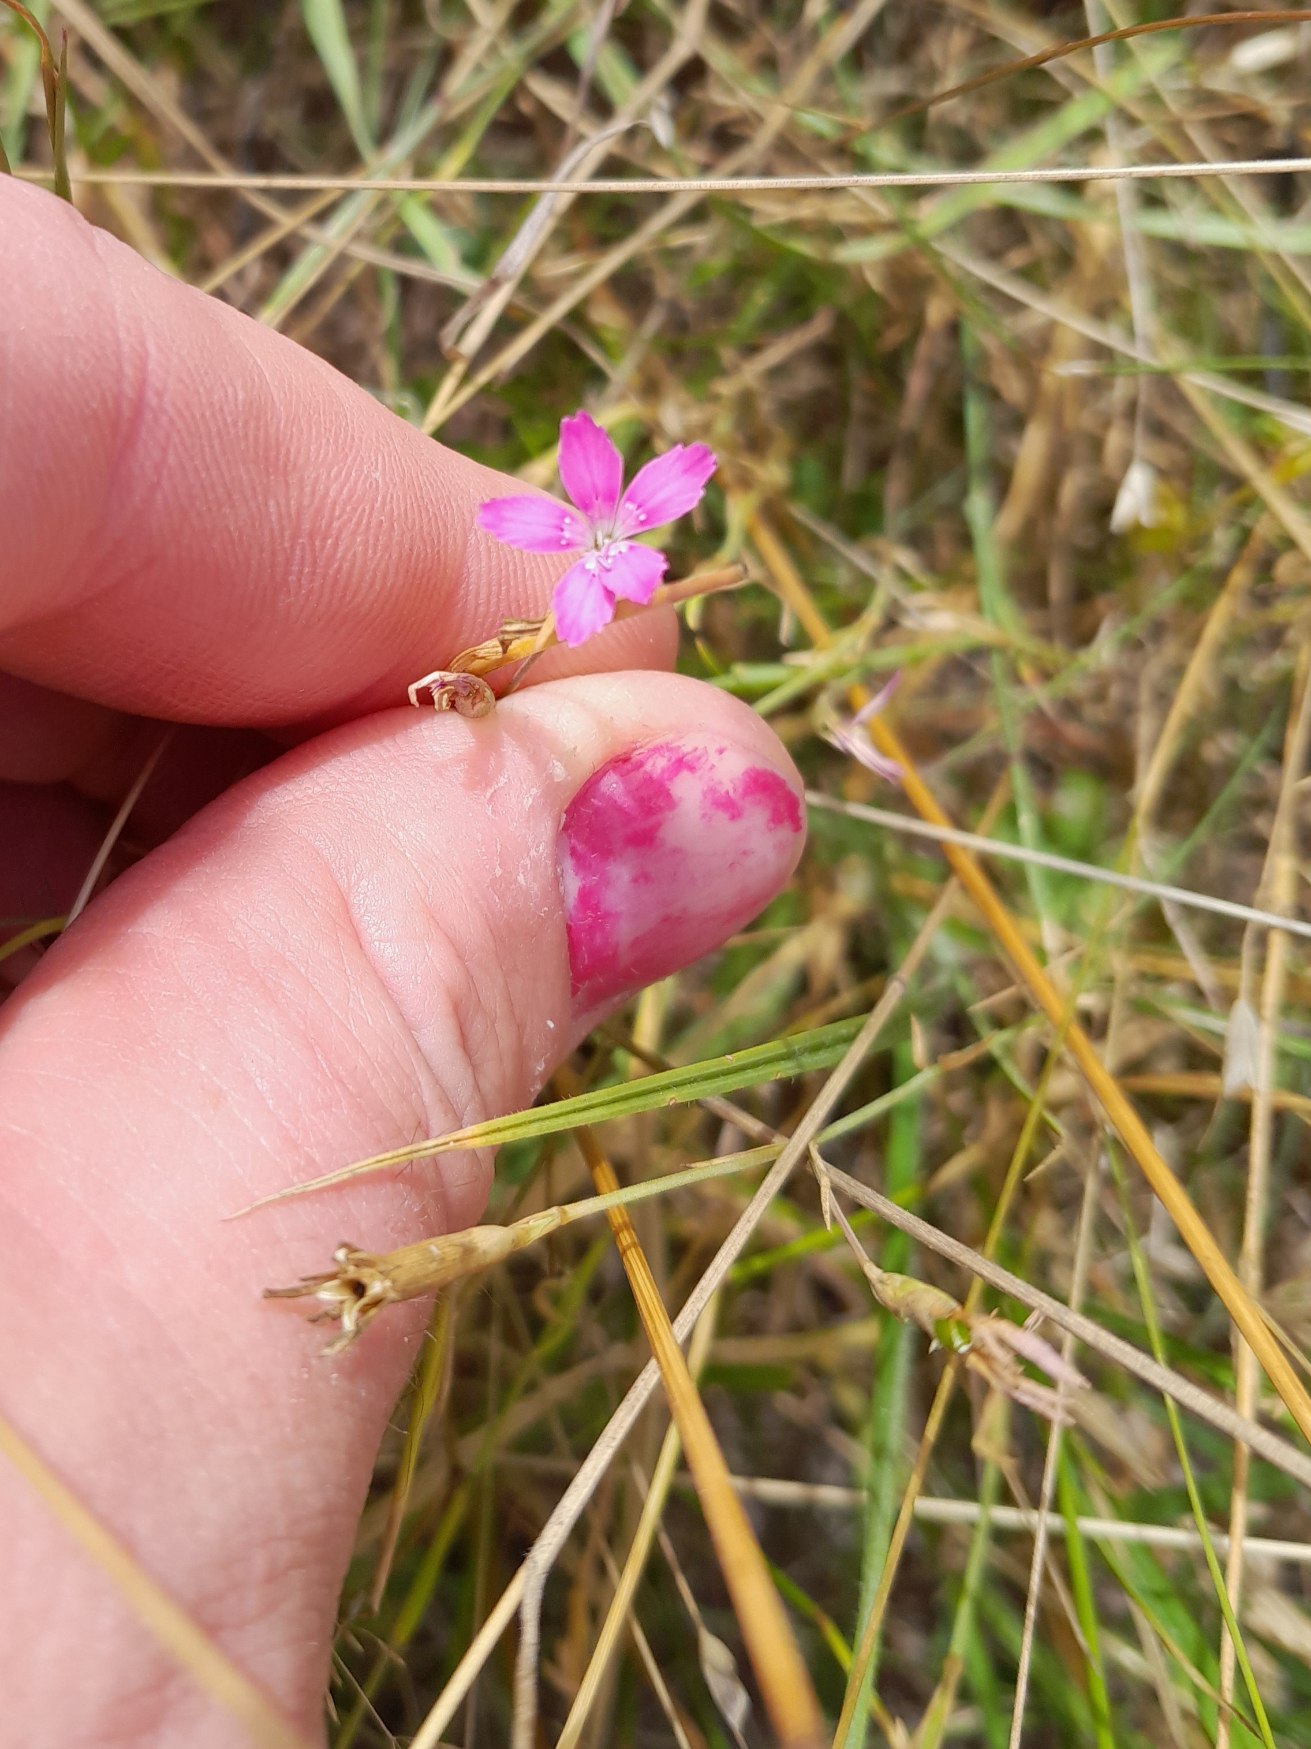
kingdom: Plantae
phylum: Tracheophyta
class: Magnoliopsida
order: Caryophyllales
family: Caryophyllaceae
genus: Dianthus
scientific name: Dianthus deltoides
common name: Bakke-nellike
